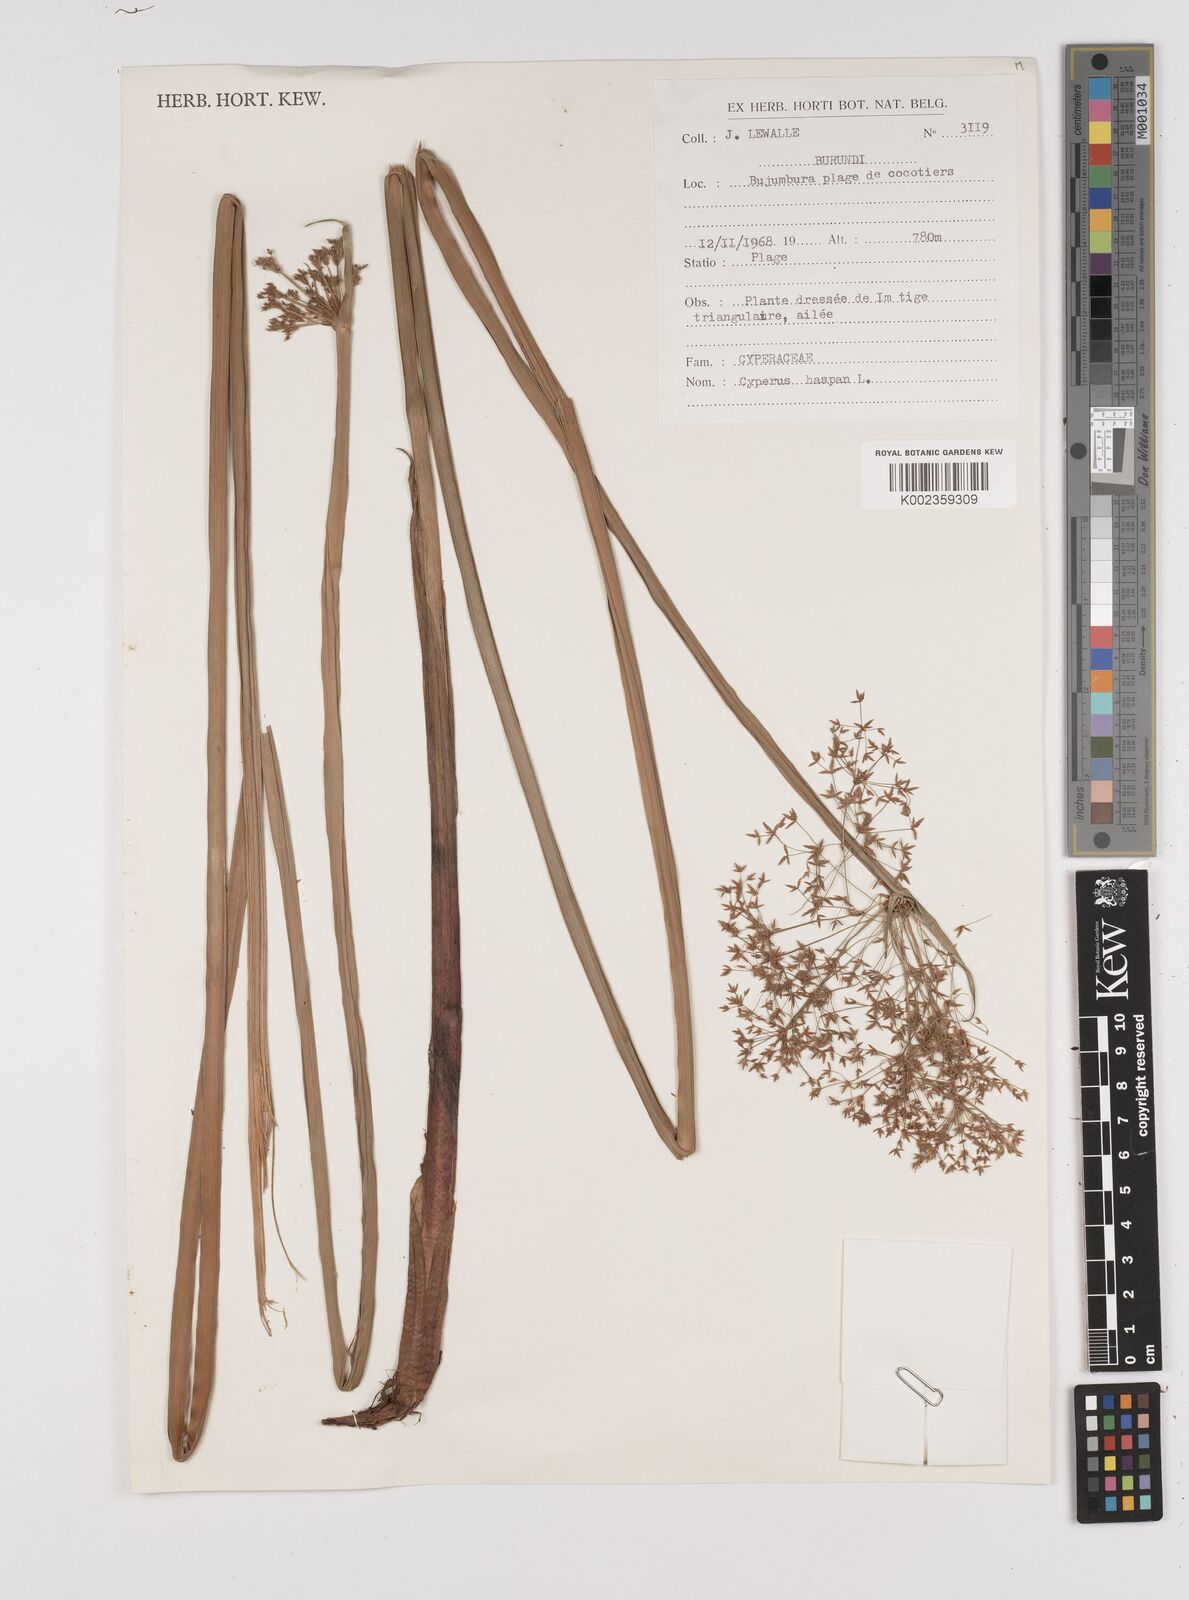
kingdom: Plantae
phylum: Tracheophyta
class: Liliopsida
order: Poales
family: Cyperaceae
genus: Cyperus
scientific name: Cyperus haspan
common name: Haspan flatsedge
